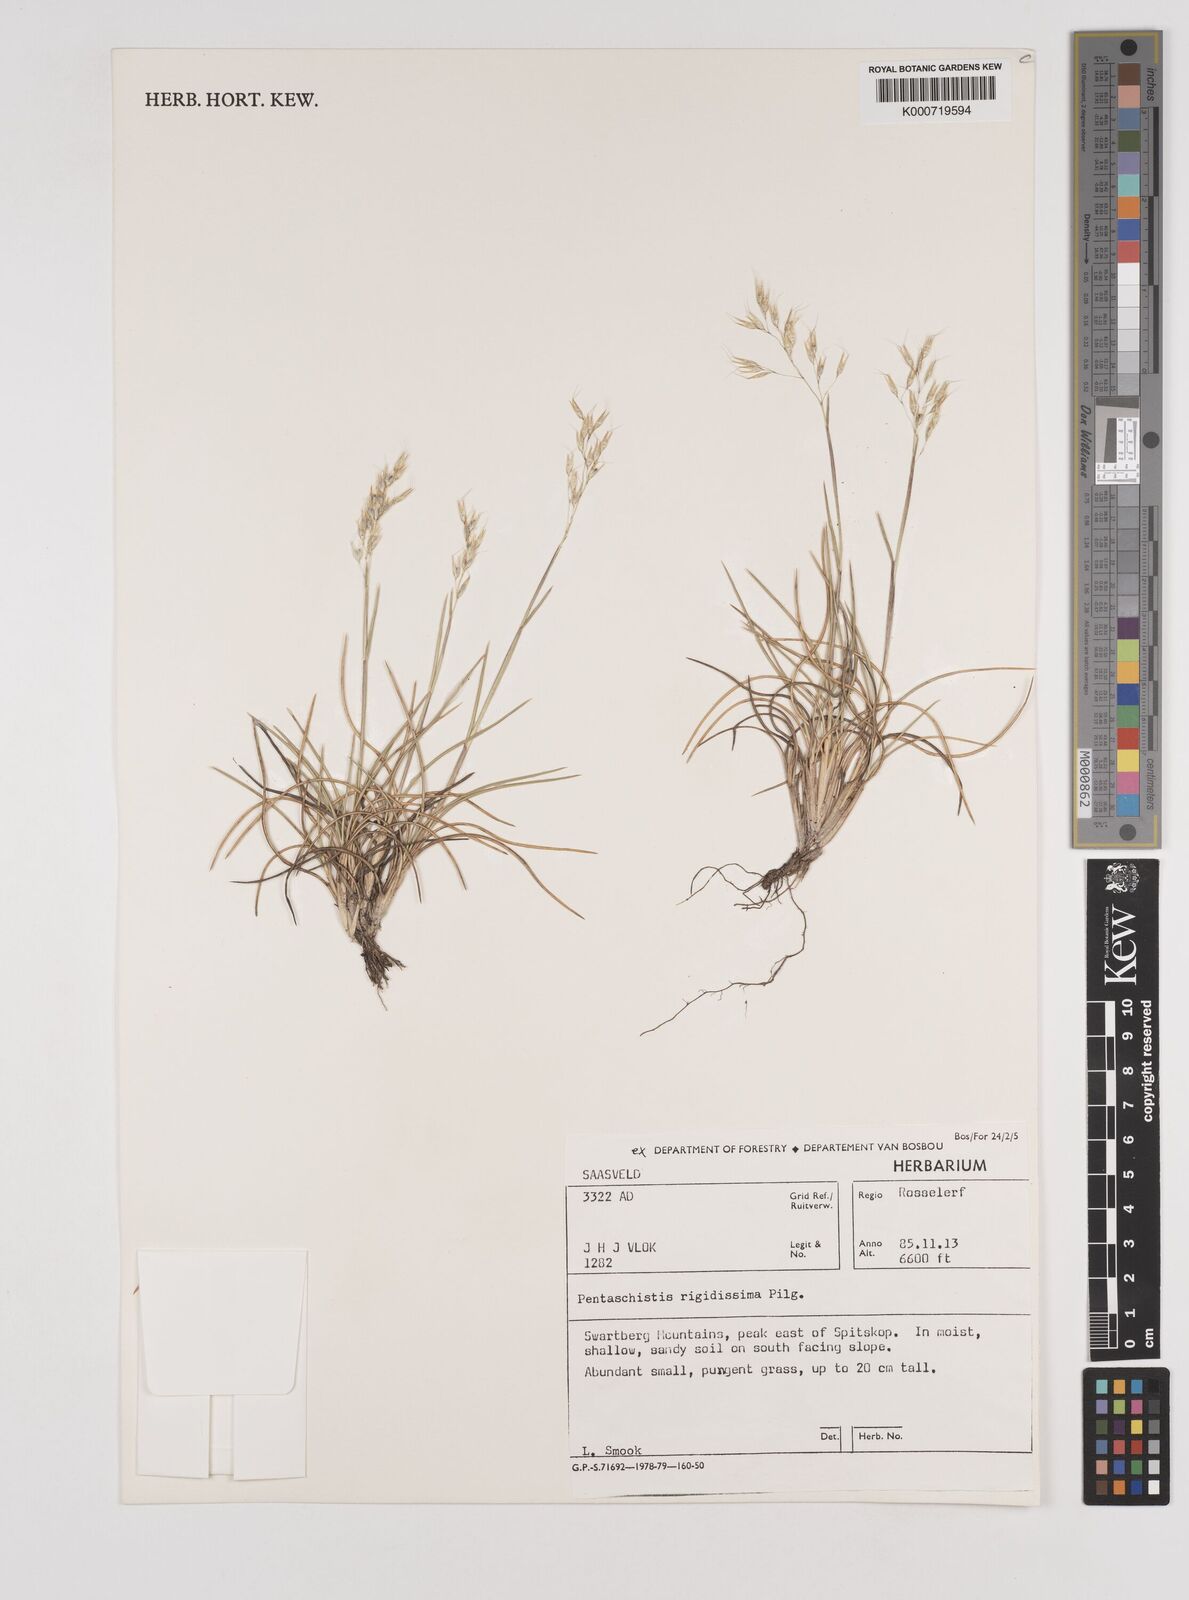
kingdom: Plantae
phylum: Tracheophyta
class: Liliopsida
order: Poales
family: Poaceae
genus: Pentameris
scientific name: Pentameris rigidissima
